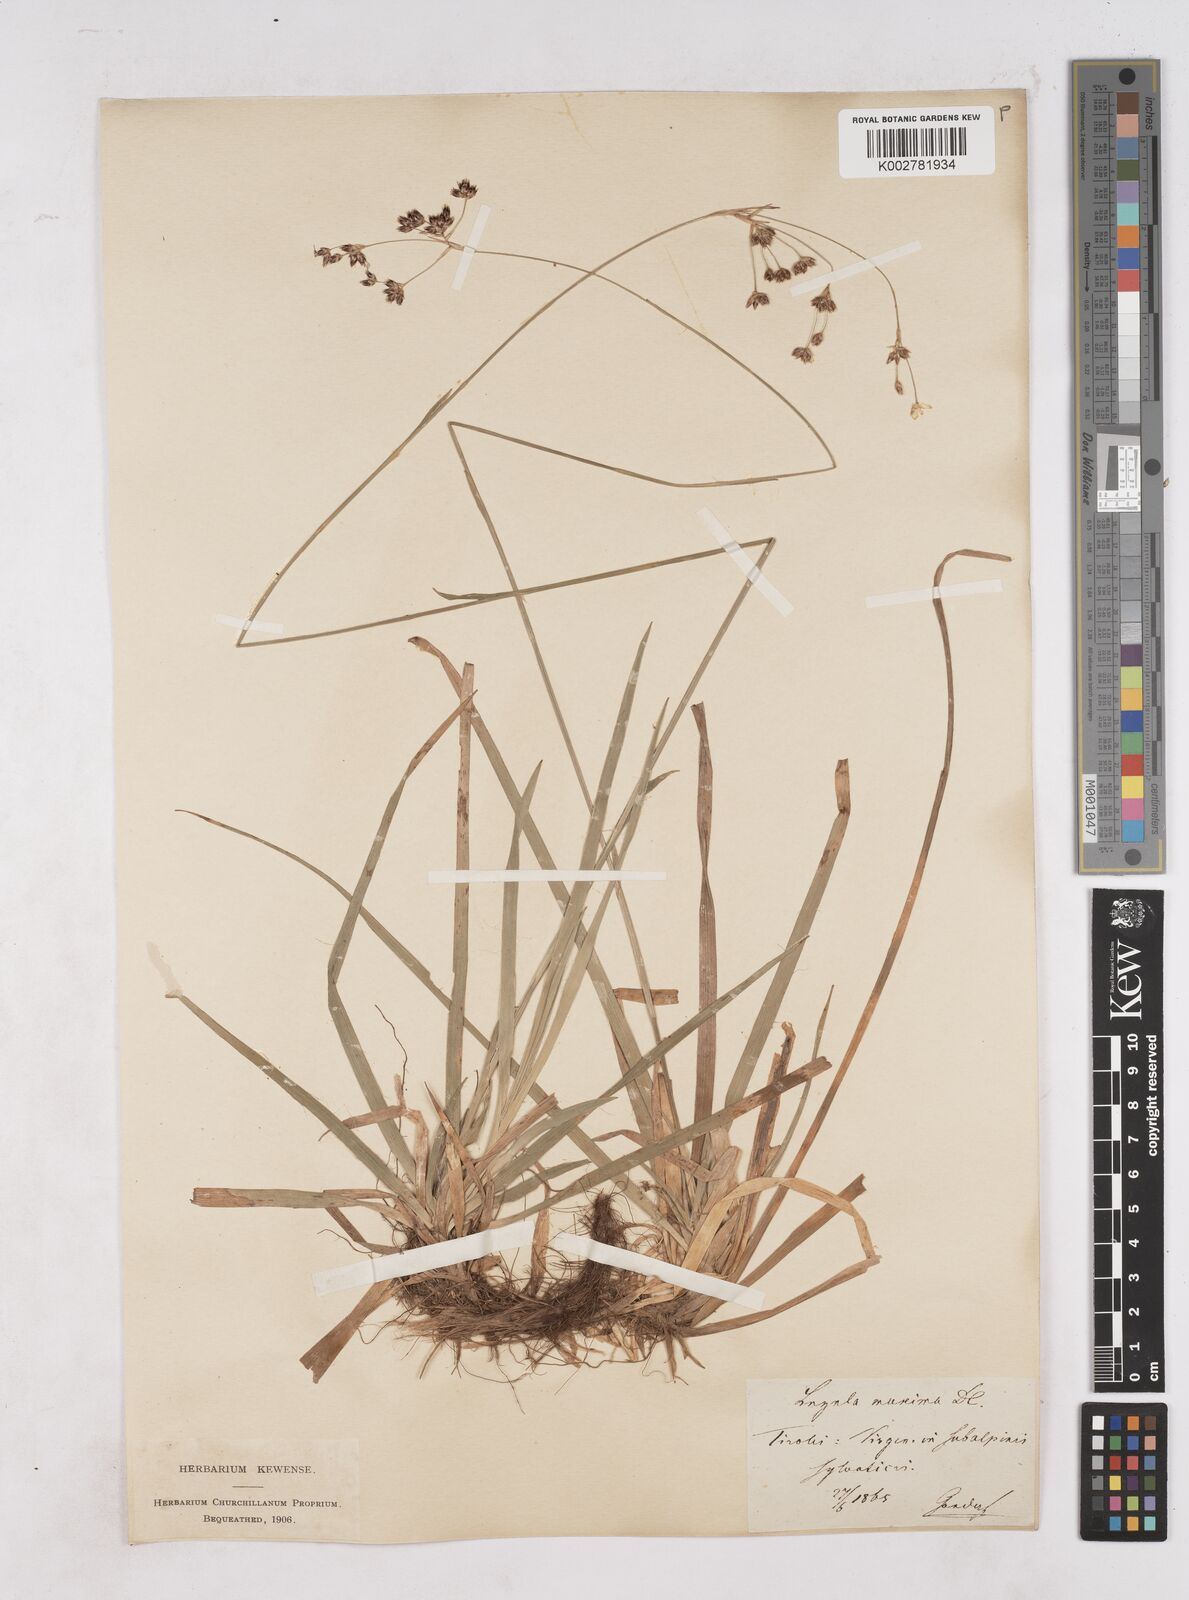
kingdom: Plantae
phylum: Tracheophyta
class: Liliopsida
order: Poales
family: Juncaceae
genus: Luzula
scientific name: Luzula sylvatica
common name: Great wood-rush
